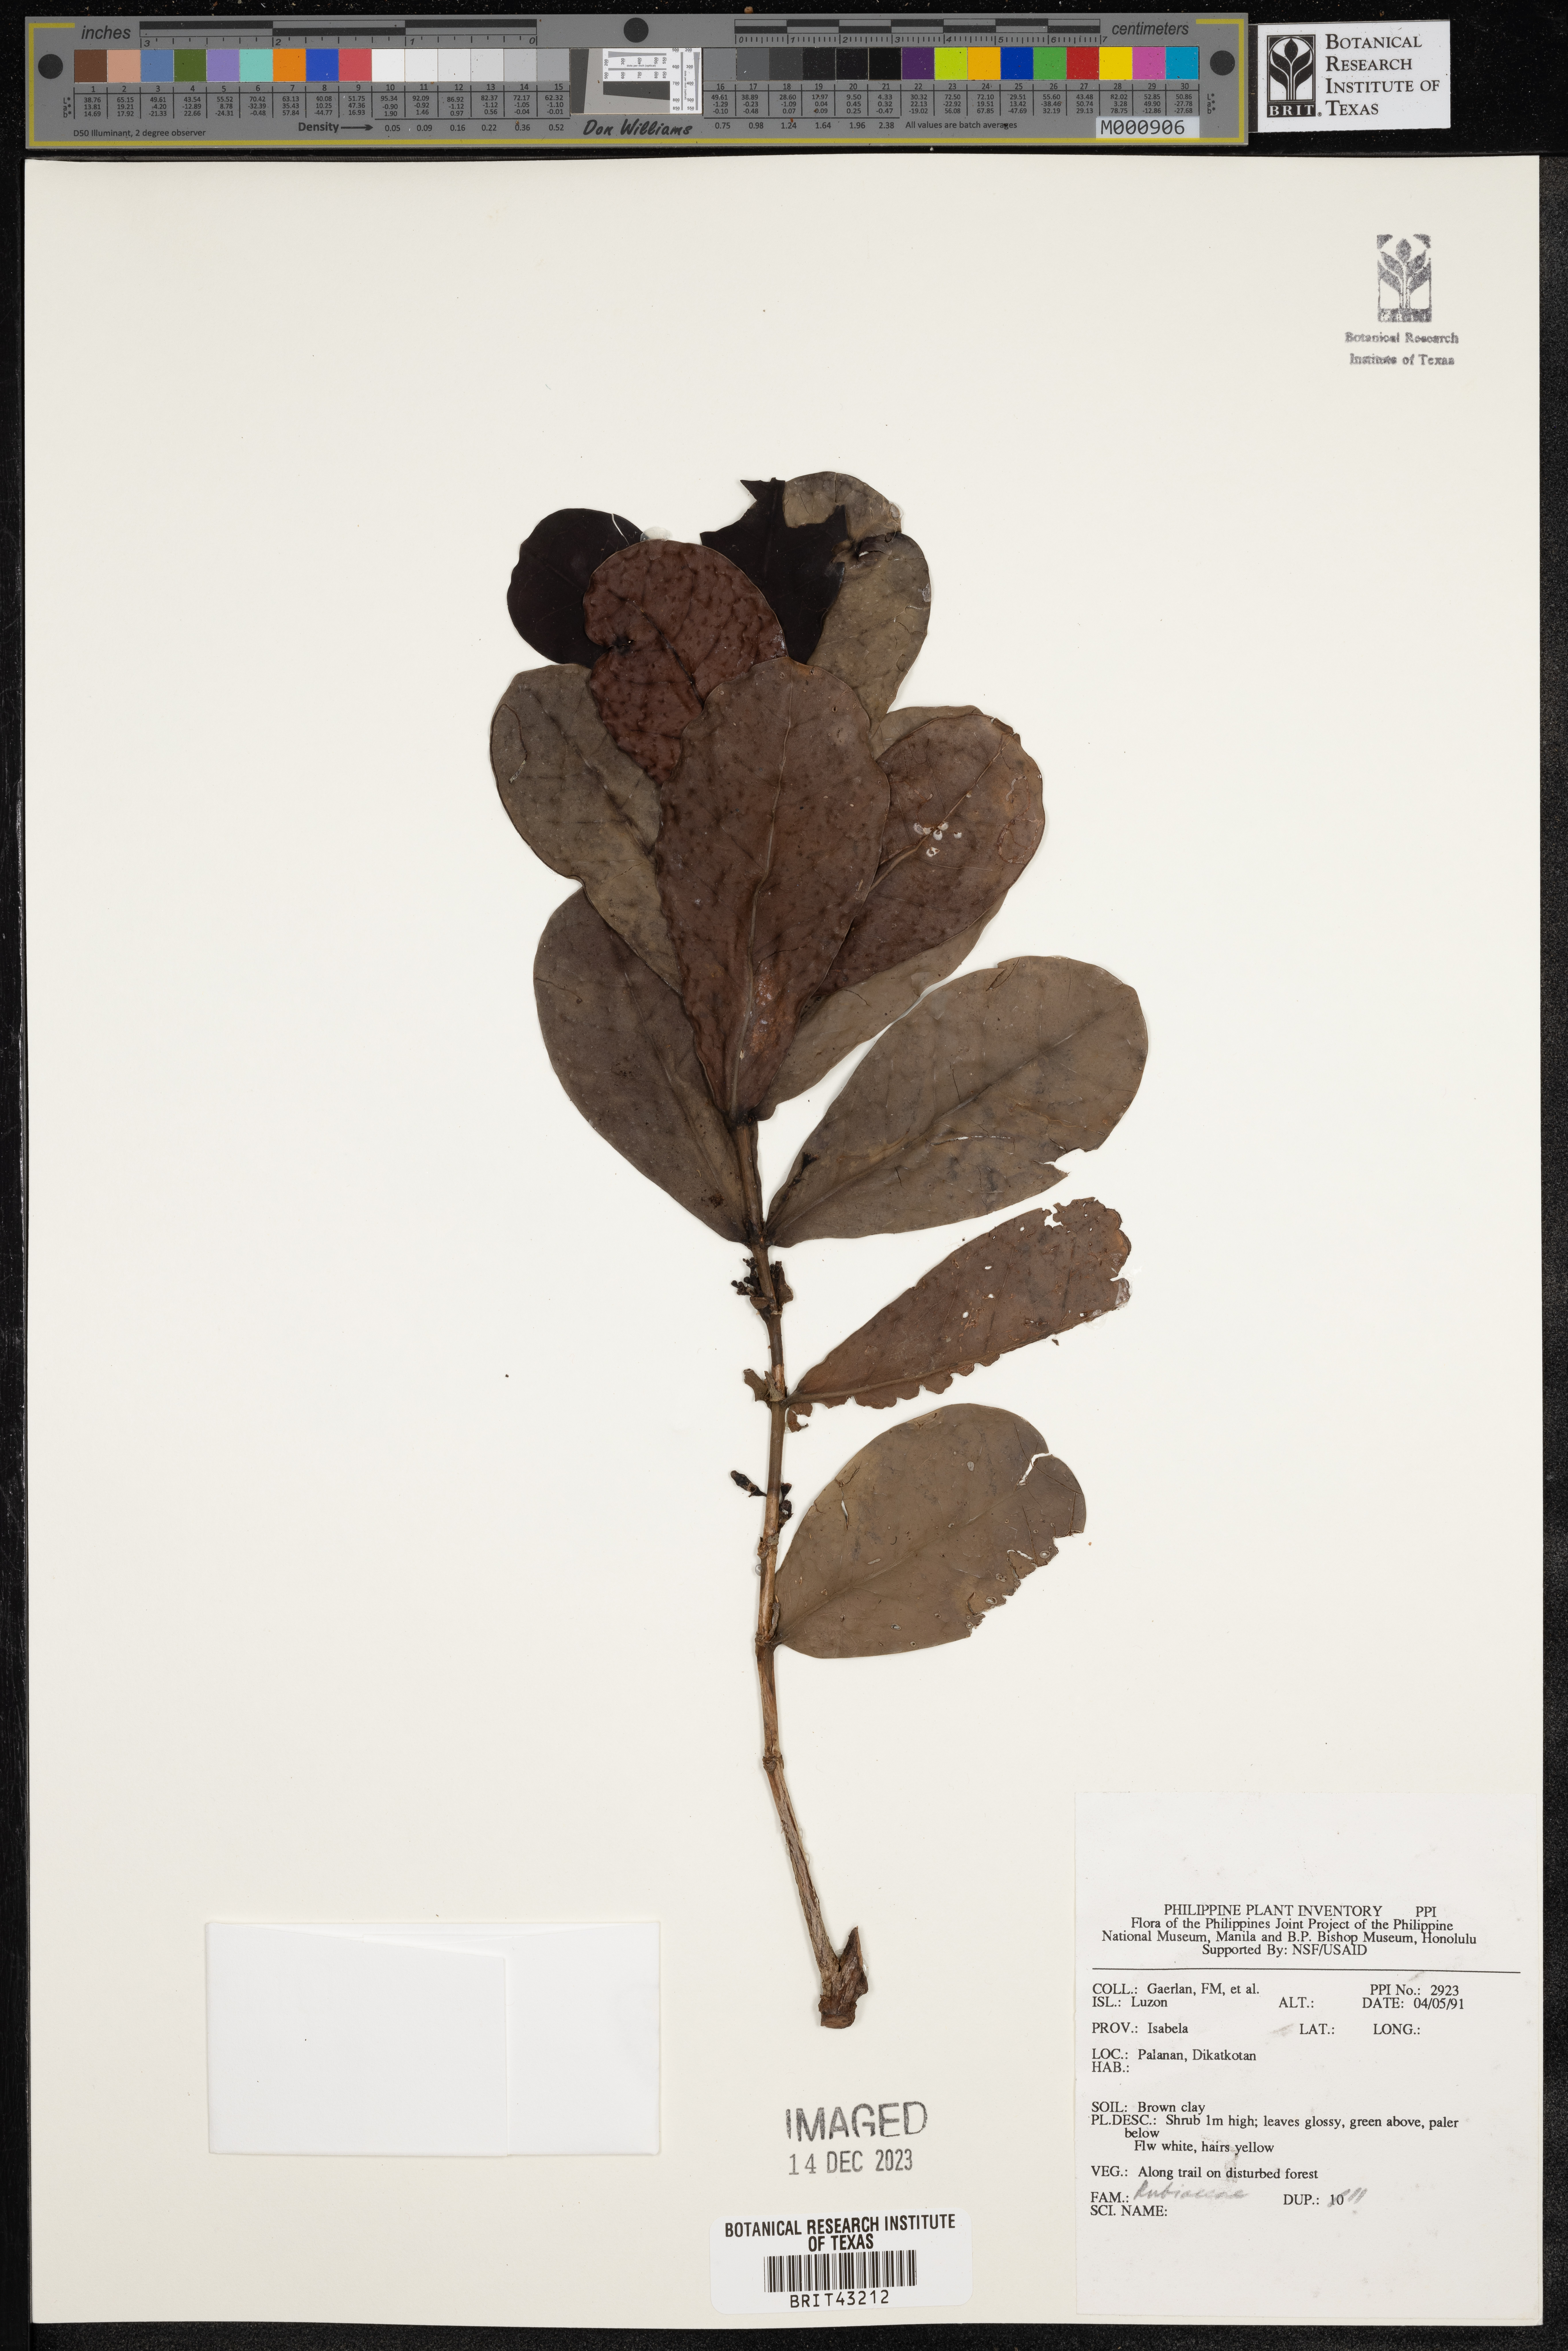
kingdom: Plantae
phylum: Tracheophyta
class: Magnoliopsida
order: Gentianales
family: Rubiaceae
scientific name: Rubiaceae
